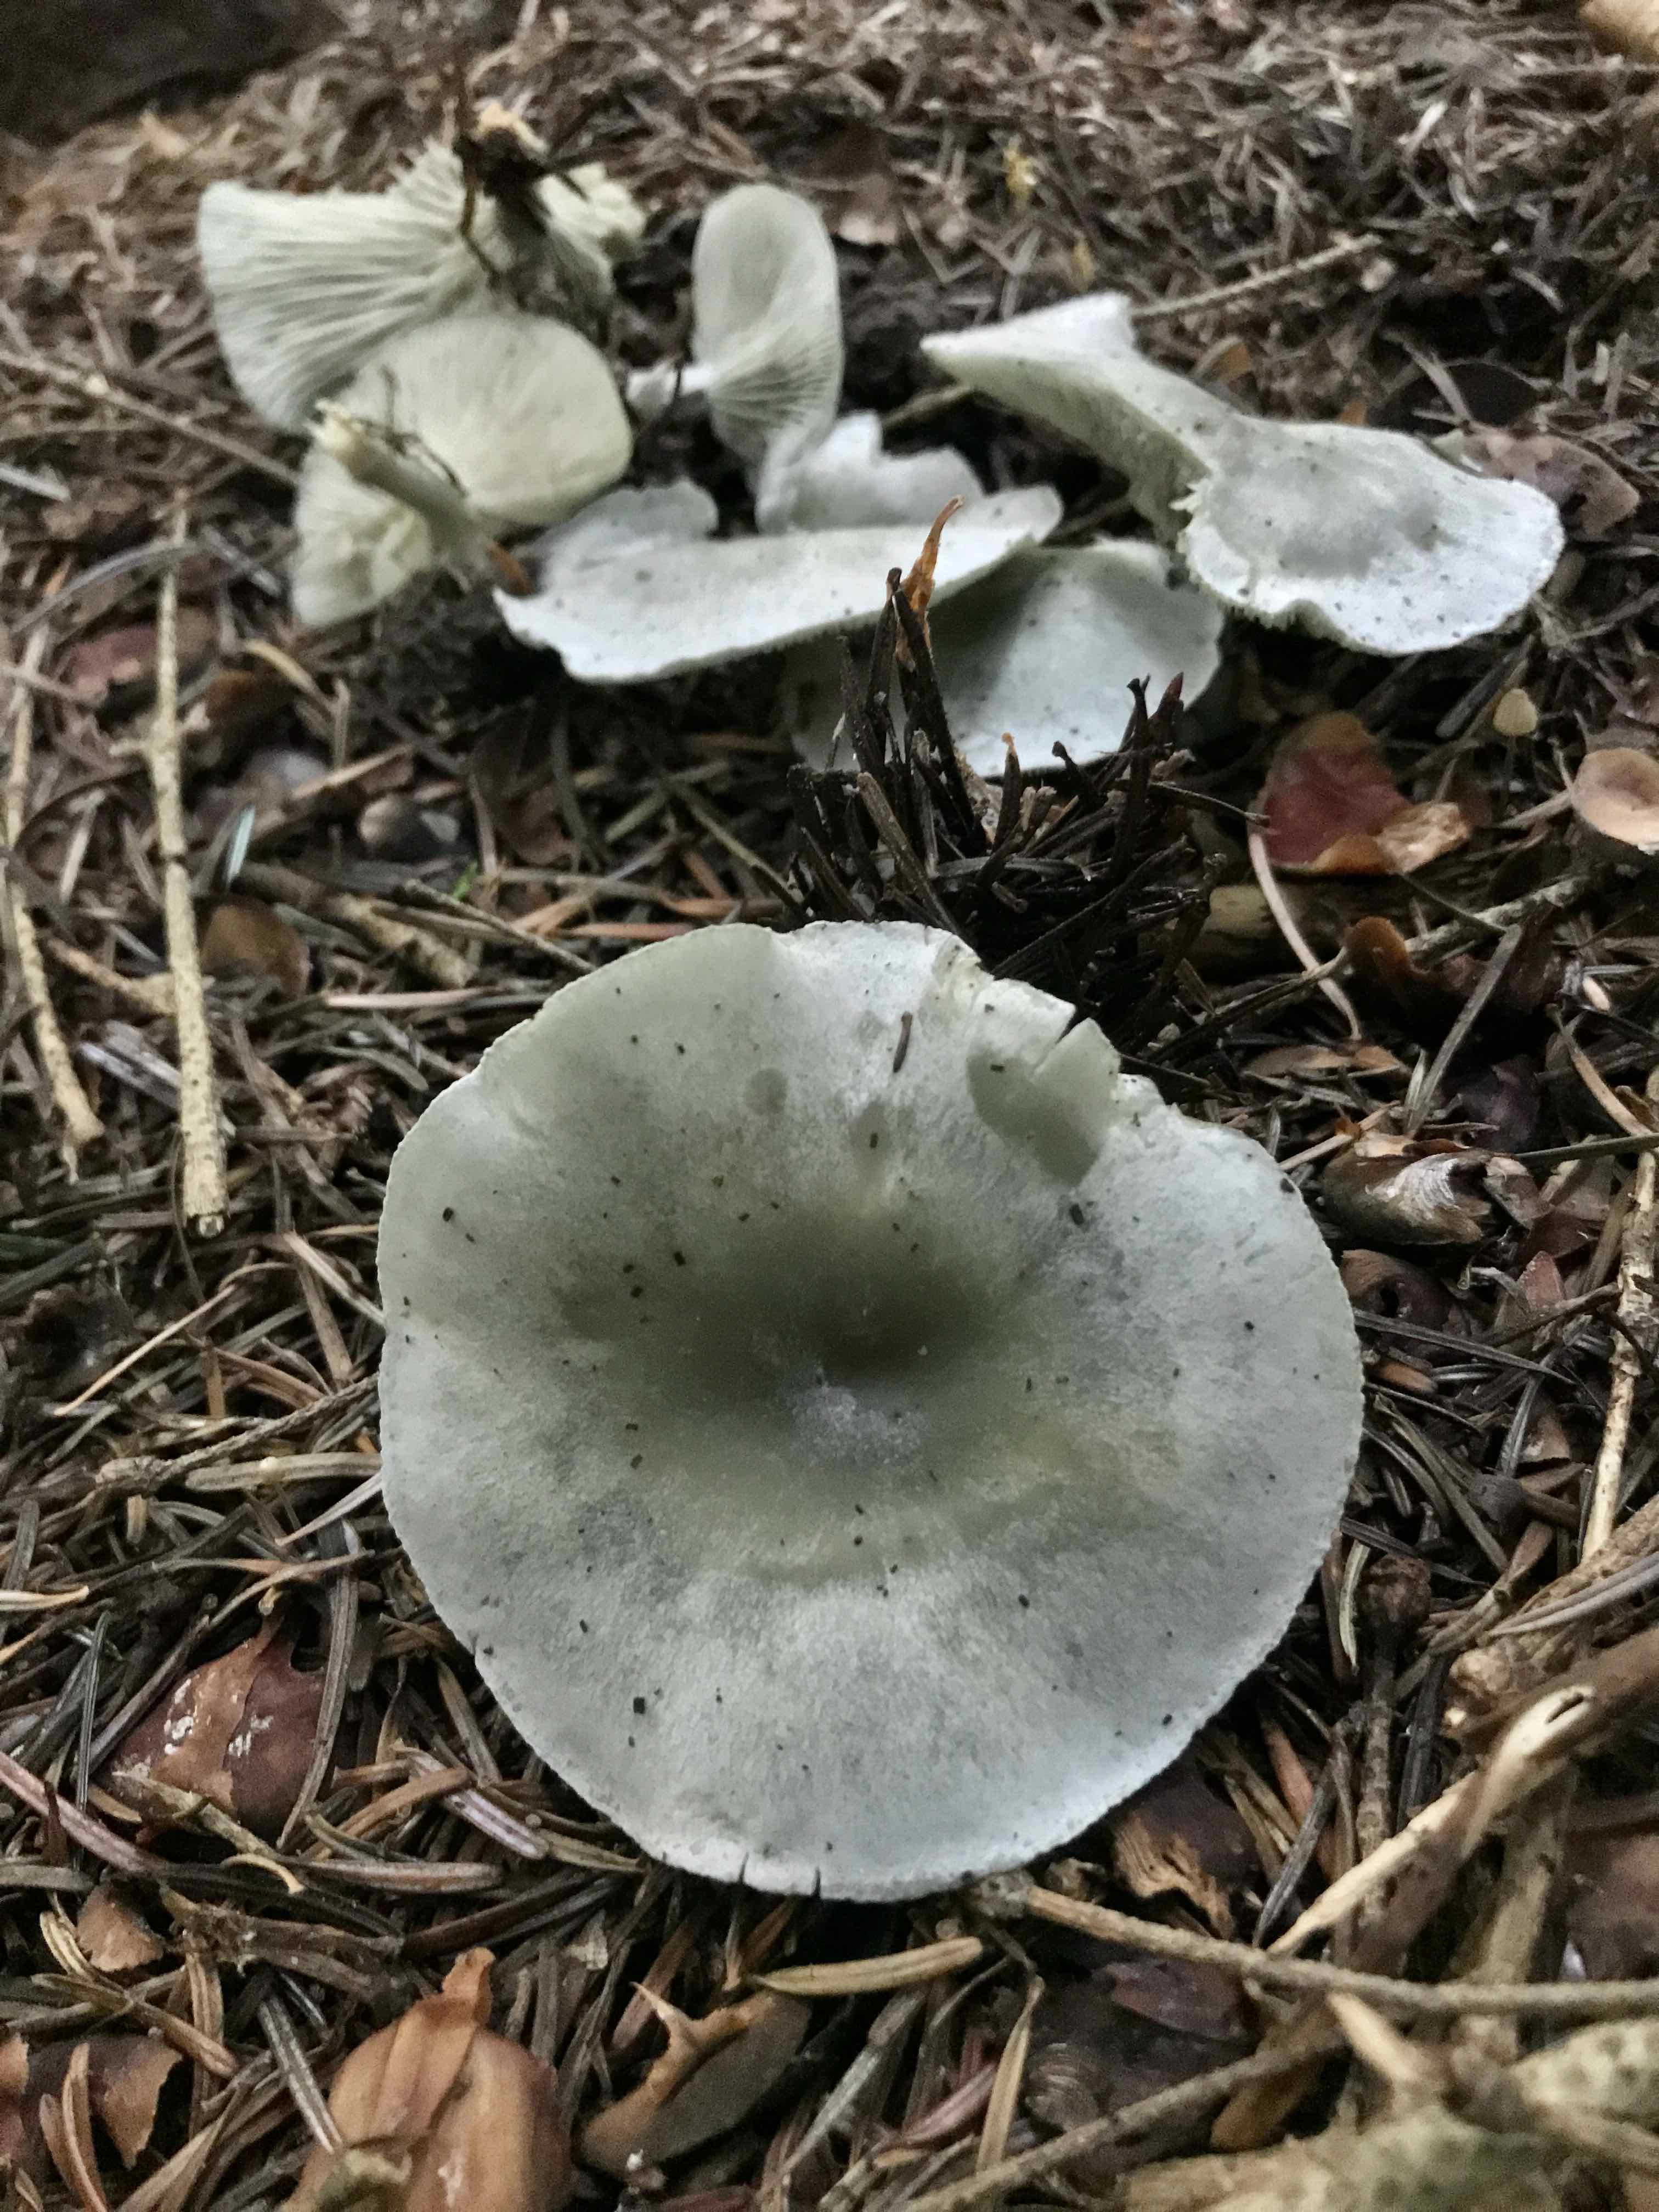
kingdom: Fungi
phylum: Basidiomycota
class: Agaricomycetes
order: Agaricales
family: Tricholomataceae
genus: Clitocybe
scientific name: Clitocybe odora
